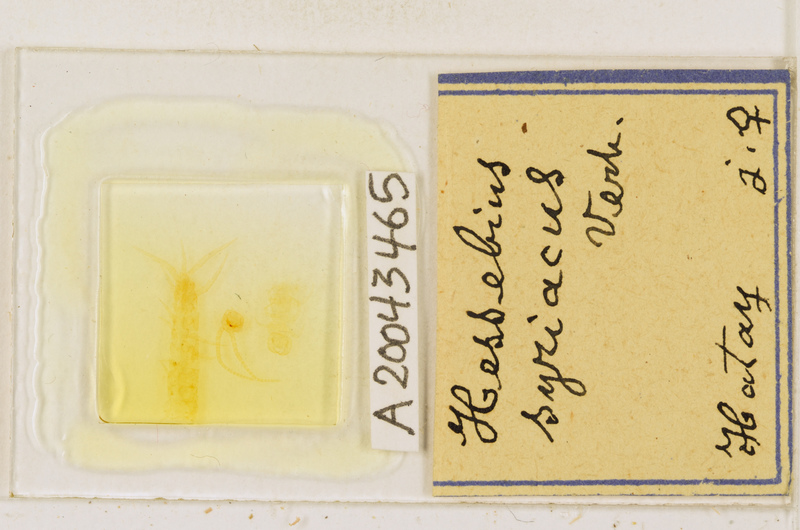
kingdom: Animalia
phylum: Arthropoda
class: Chilopoda
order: Lithobiomorpha
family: Lithobiidae
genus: Hessebius
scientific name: Hessebius
